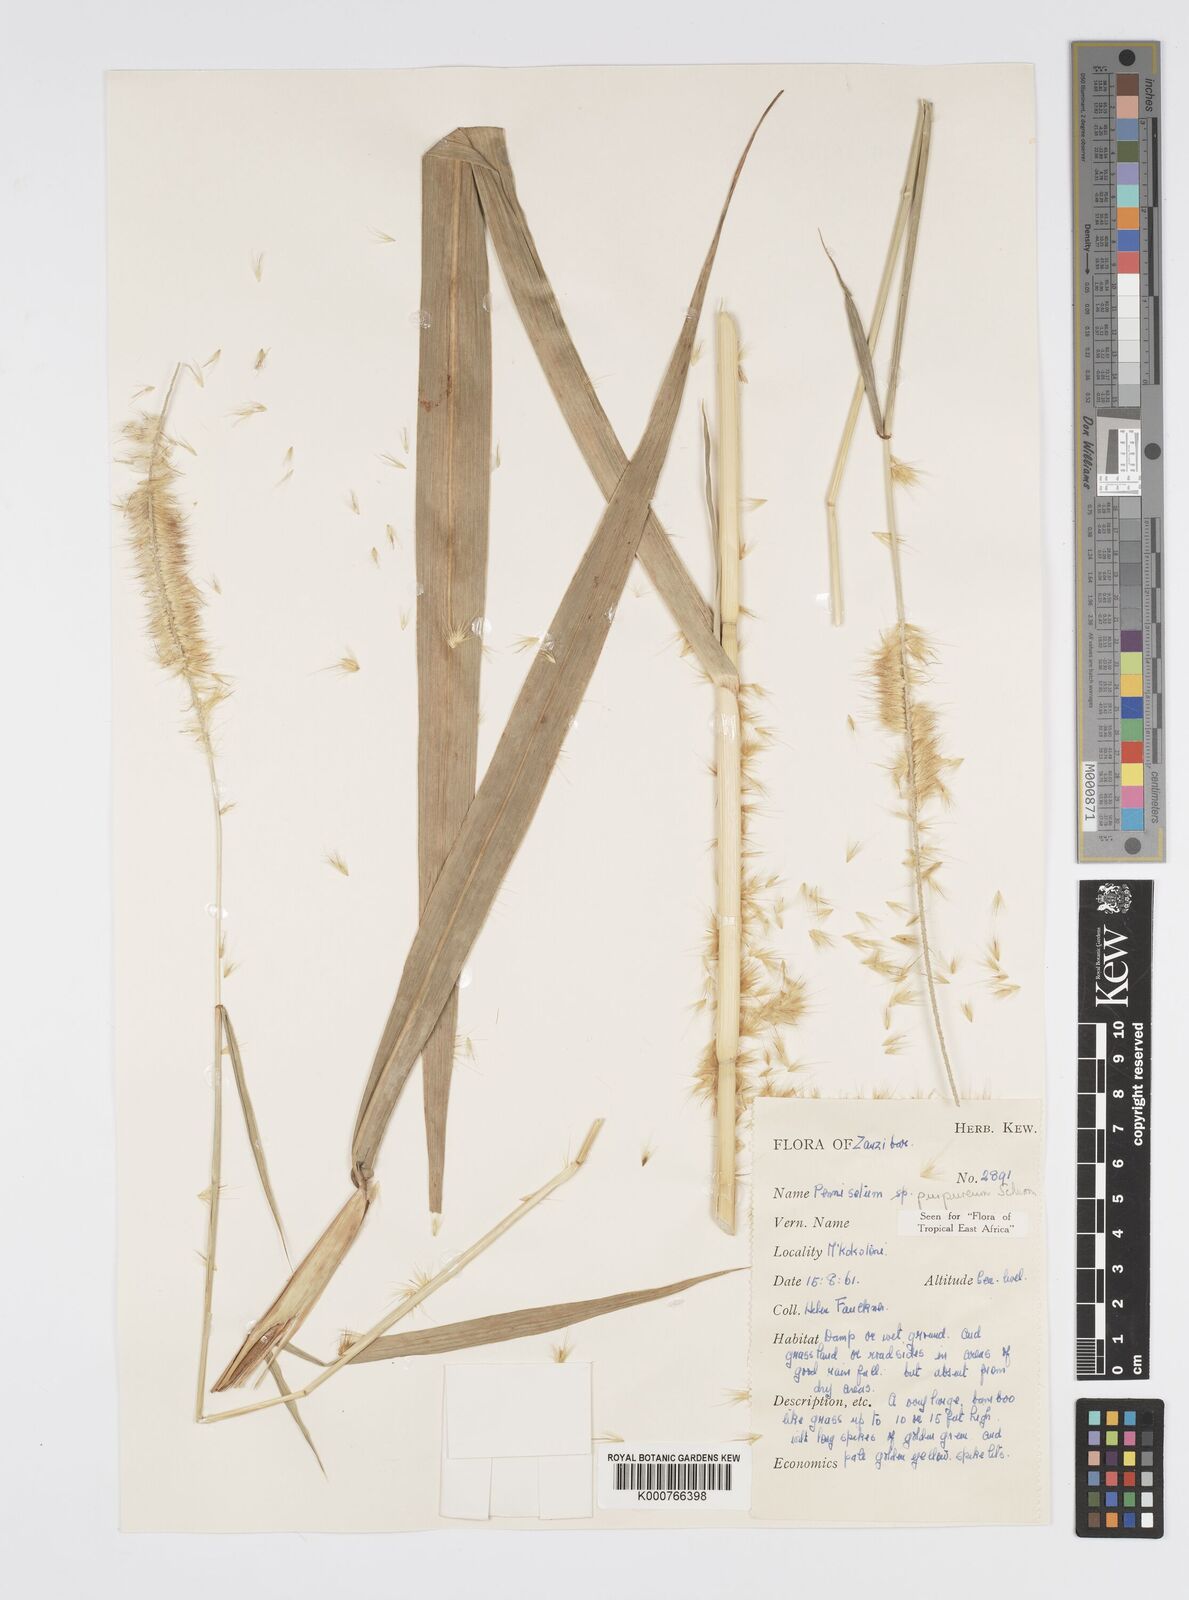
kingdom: Plantae
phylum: Tracheophyta
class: Liliopsida
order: Poales
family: Poaceae
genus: Cenchrus
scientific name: Cenchrus purpureus
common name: Elephant grass
